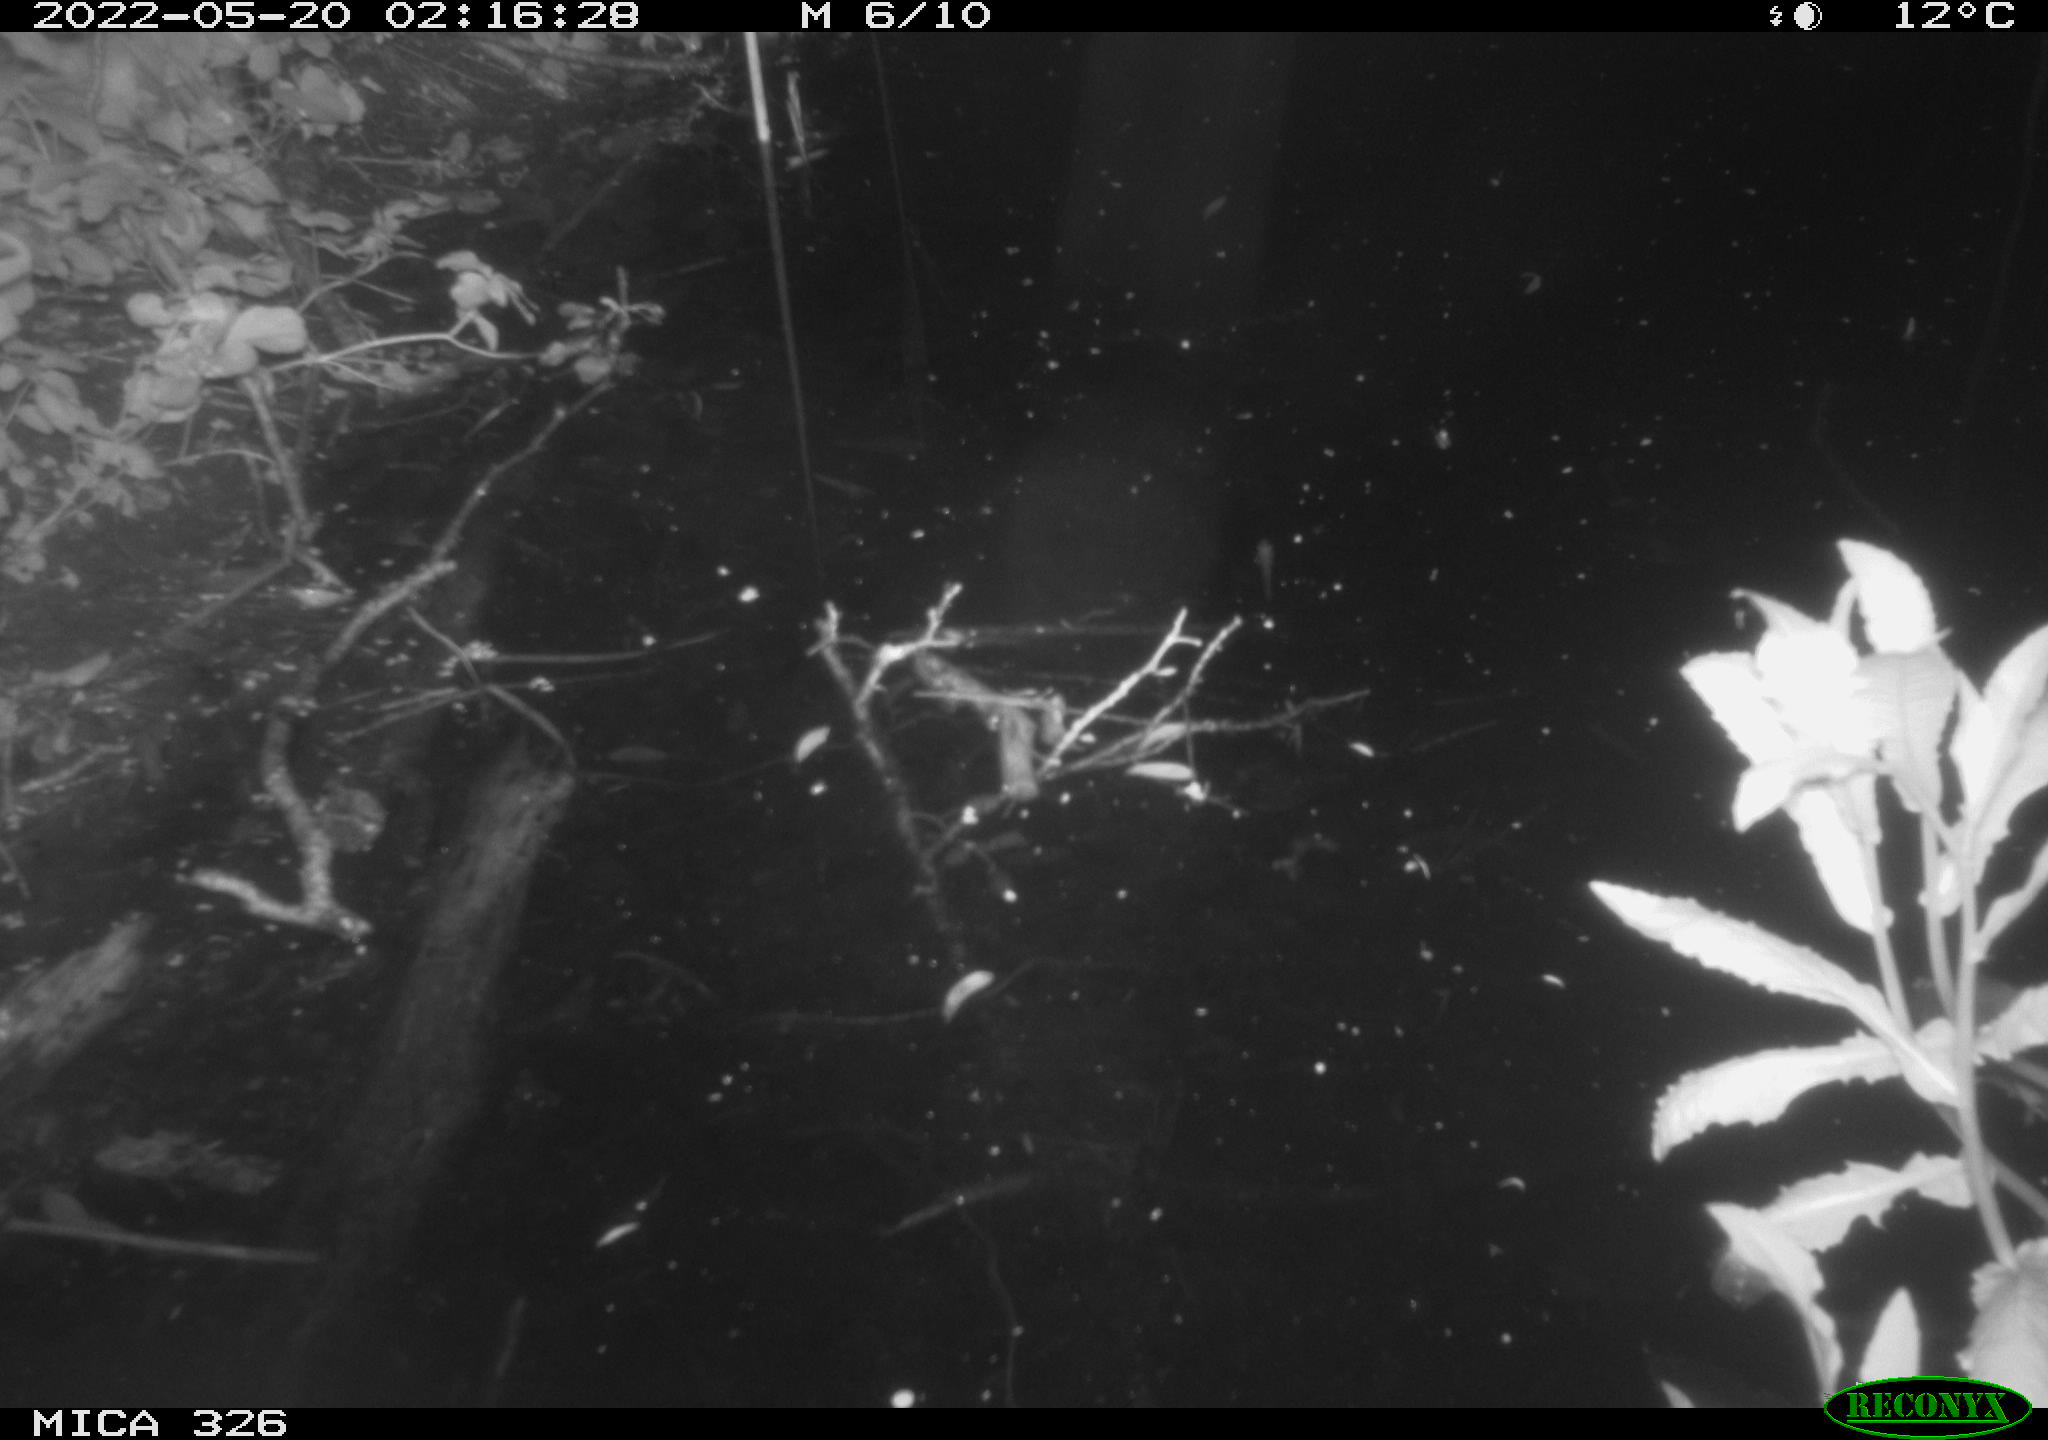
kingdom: Animalia
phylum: Chordata
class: Mammalia
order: Rodentia
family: Muridae
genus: Rattus
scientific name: Rattus norvegicus
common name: Brown rat
